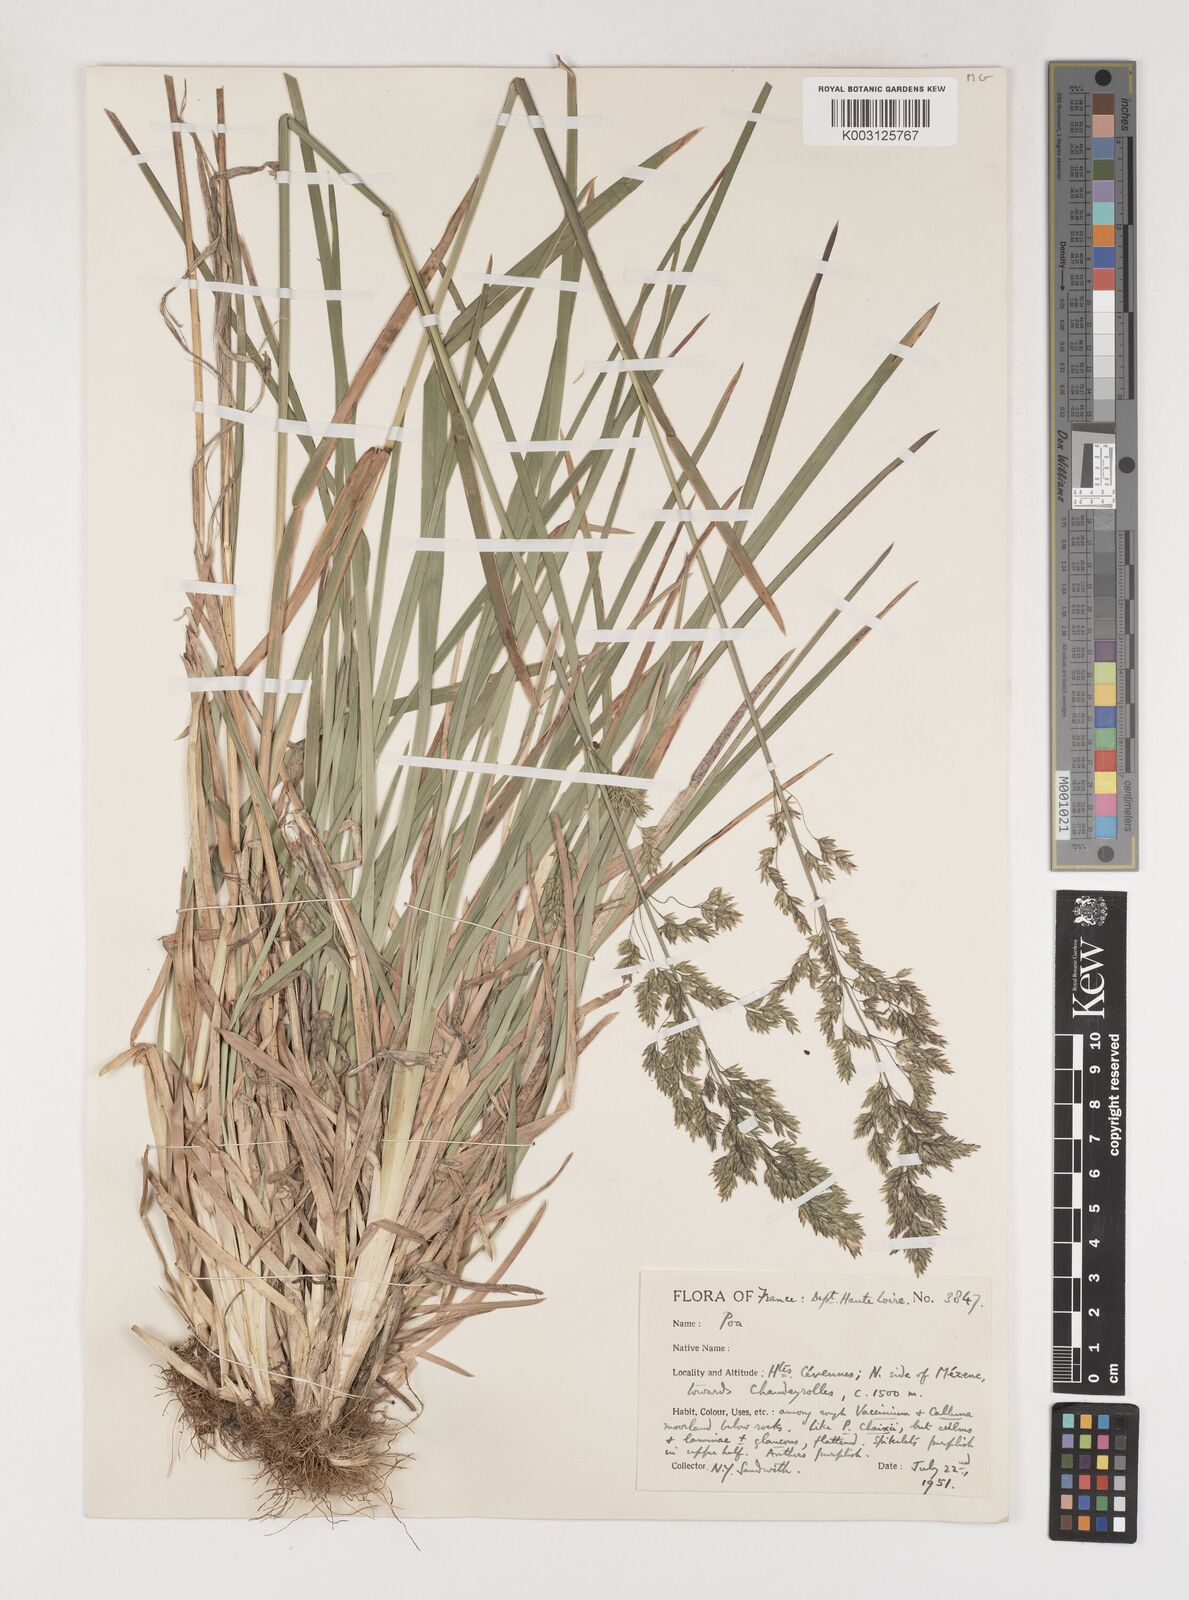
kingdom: Plantae
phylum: Tracheophyta
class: Liliopsida
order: Poales
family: Poaceae
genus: Poa
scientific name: Poa chaixii
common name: Broad-leaved meadow-grass
